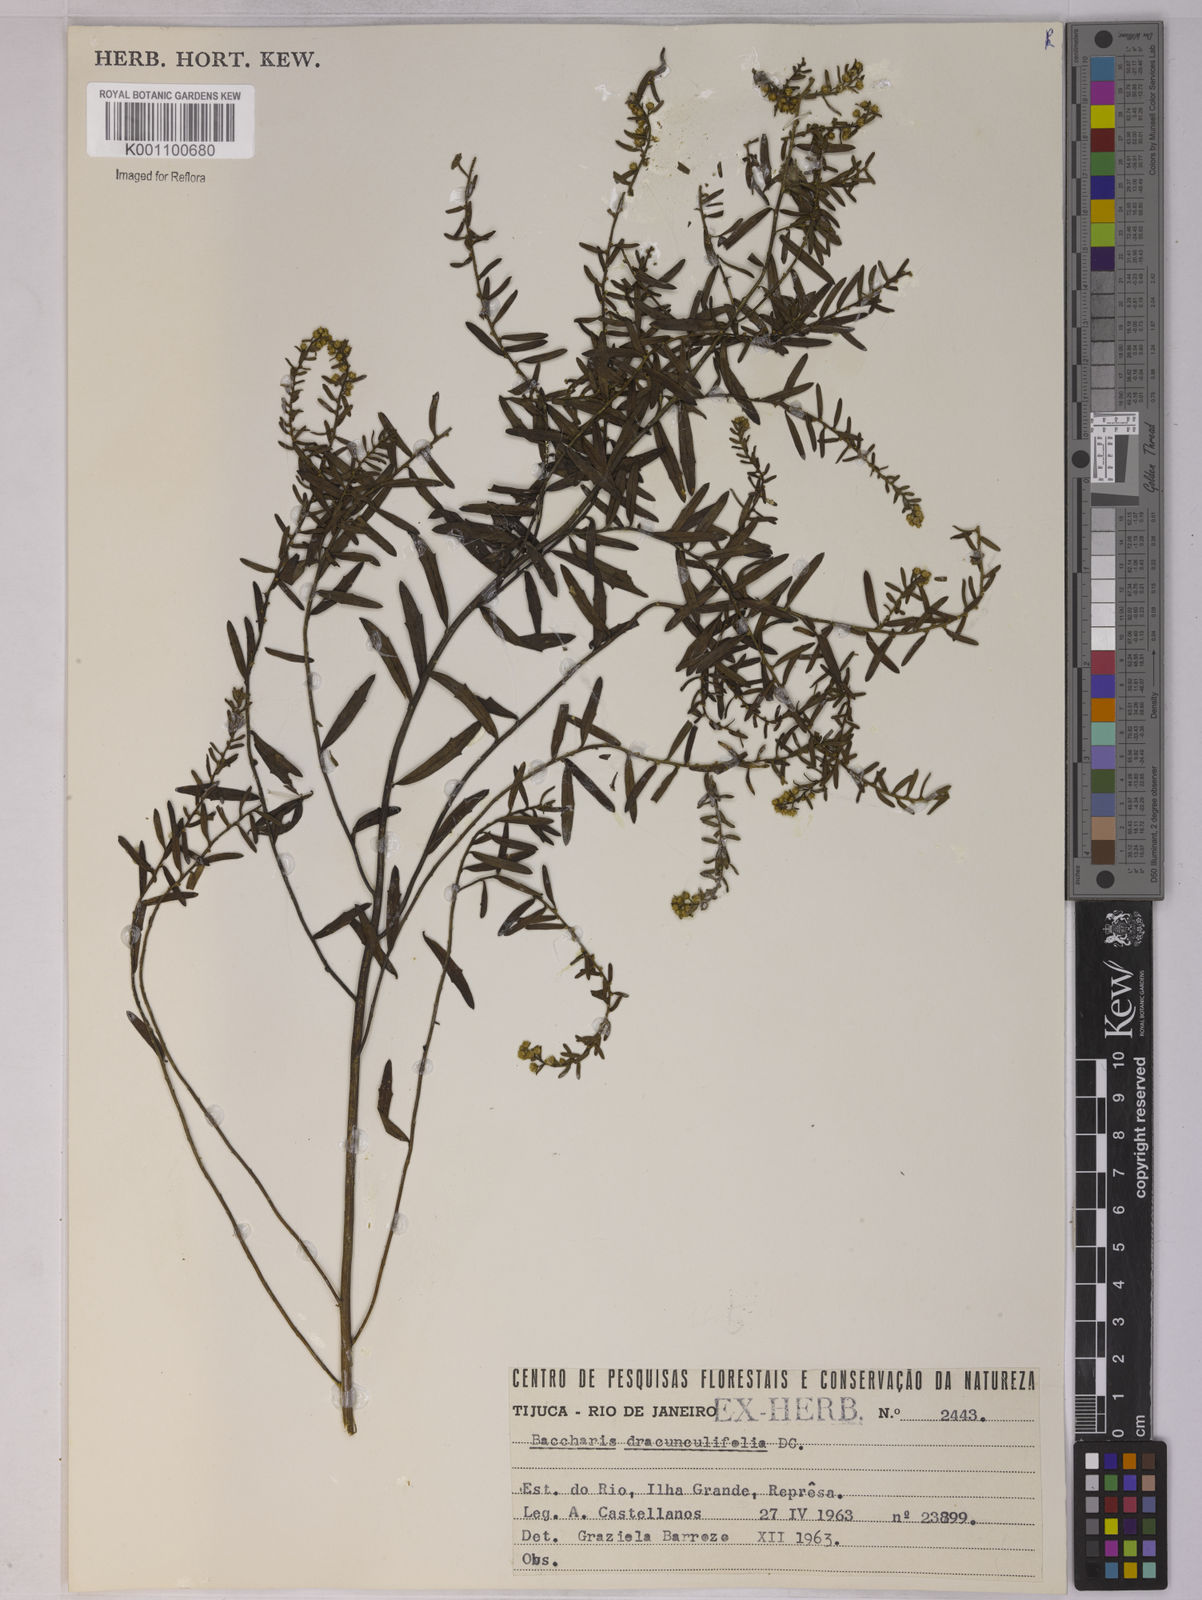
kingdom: Plantae
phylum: Tracheophyta
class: Magnoliopsida
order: Asterales
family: Asteraceae
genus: Baccharis
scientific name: Baccharis dracunculifolia
